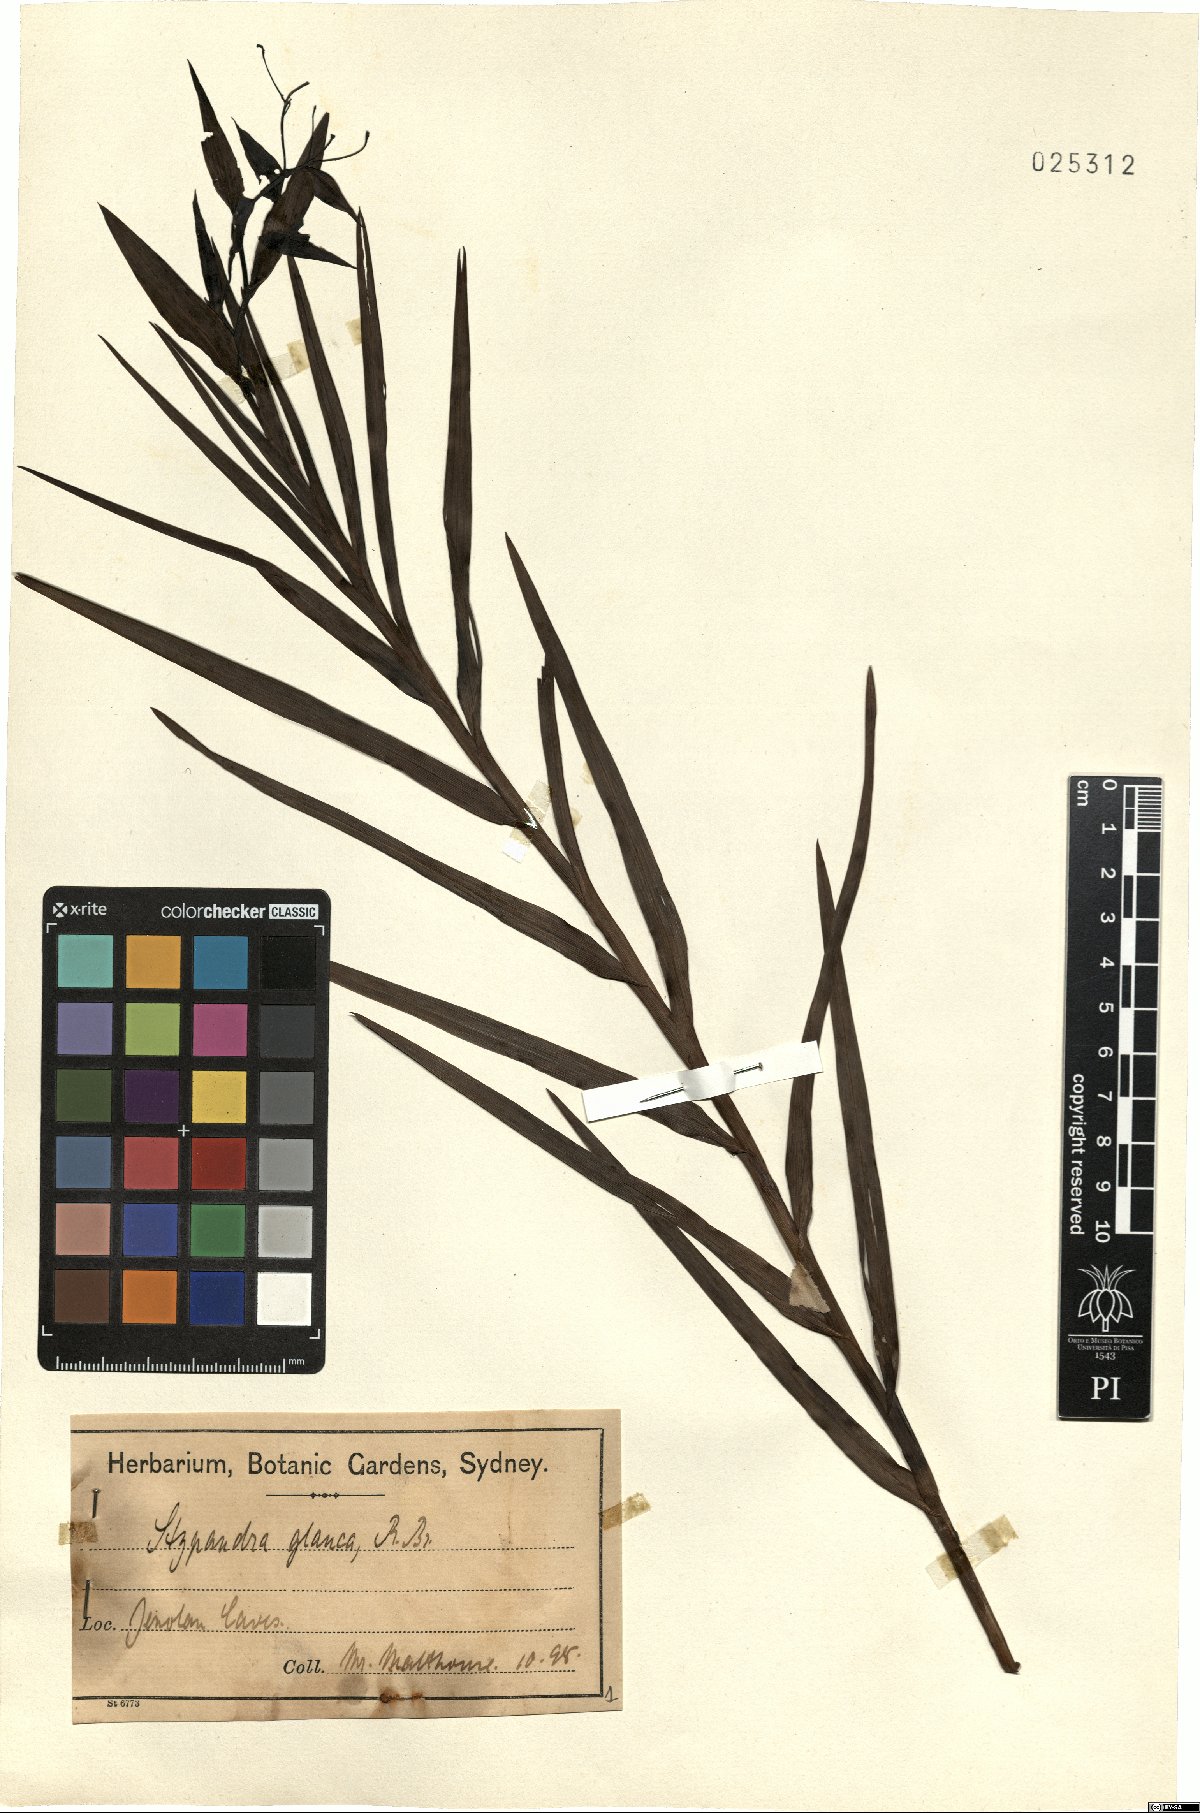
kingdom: Plantae
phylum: Tracheophyta
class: Liliopsida
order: Asparagales
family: Asphodelaceae
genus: Stypandra
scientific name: Stypandra glauca
